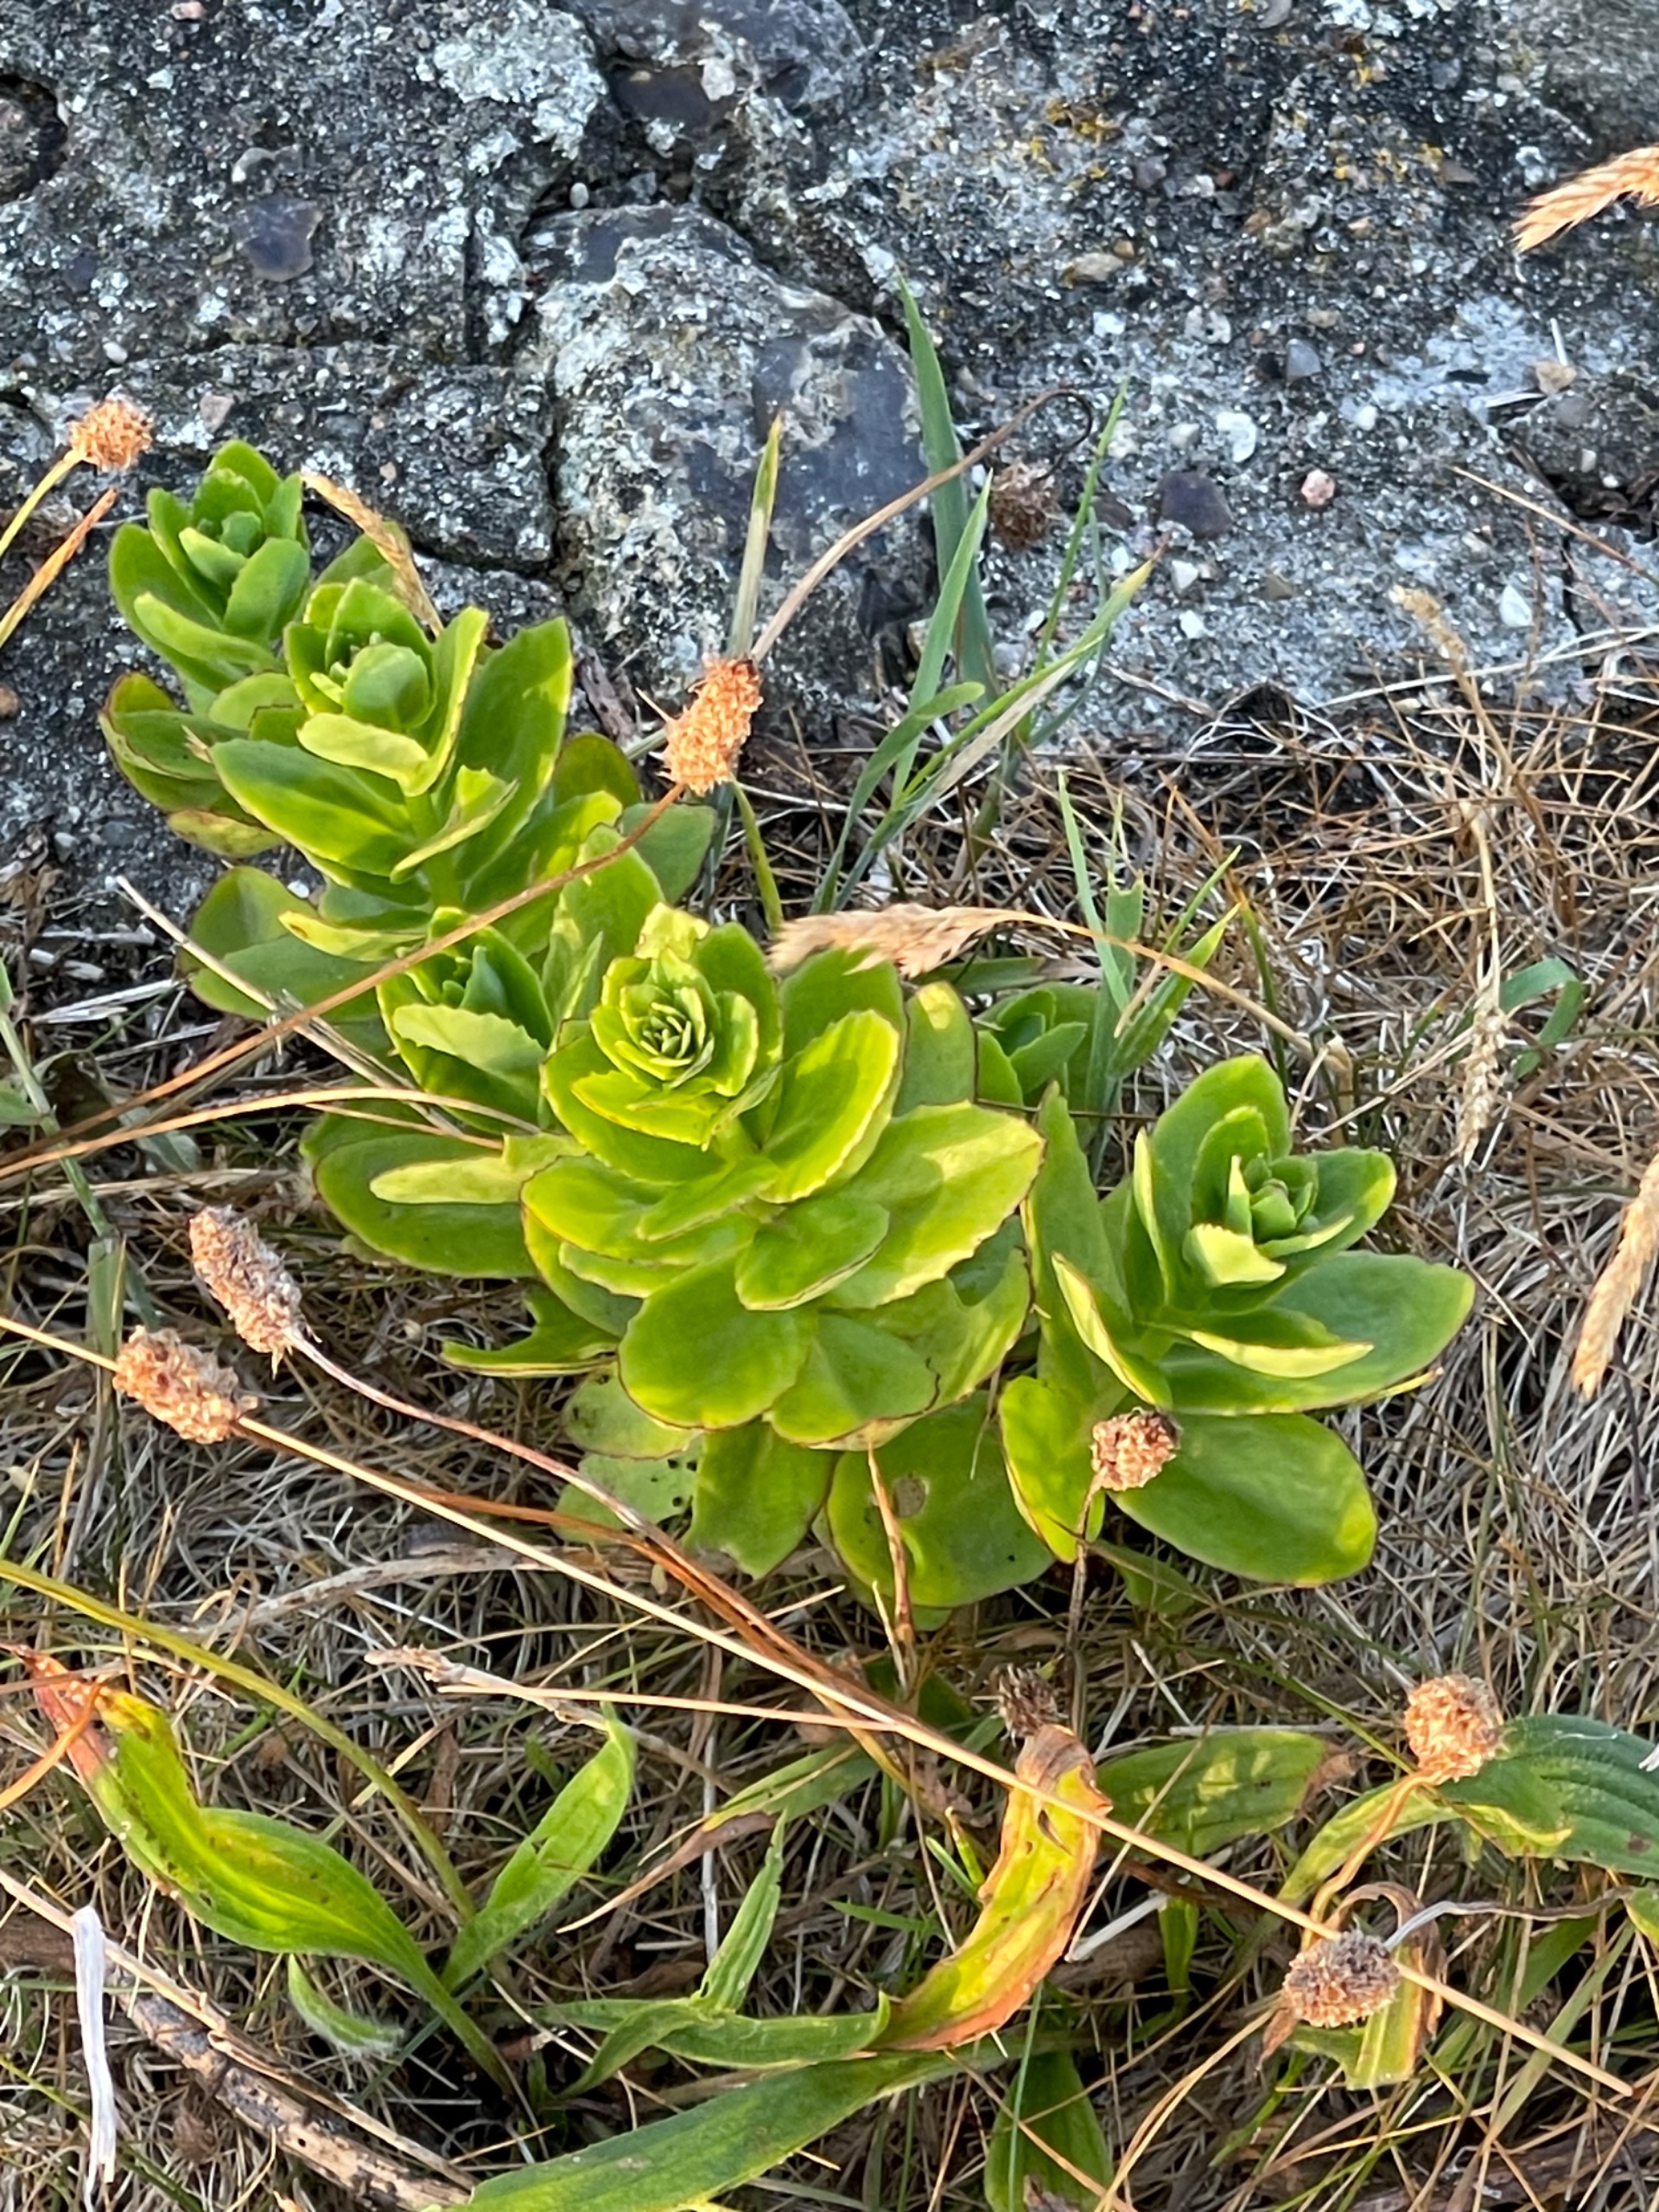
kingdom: Plantae
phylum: Tracheophyta
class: Magnoliopsida
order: Saxifragales
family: Crassulaceae
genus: Hylotelephium
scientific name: Hylotelephium telephium
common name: Sankthansurt
